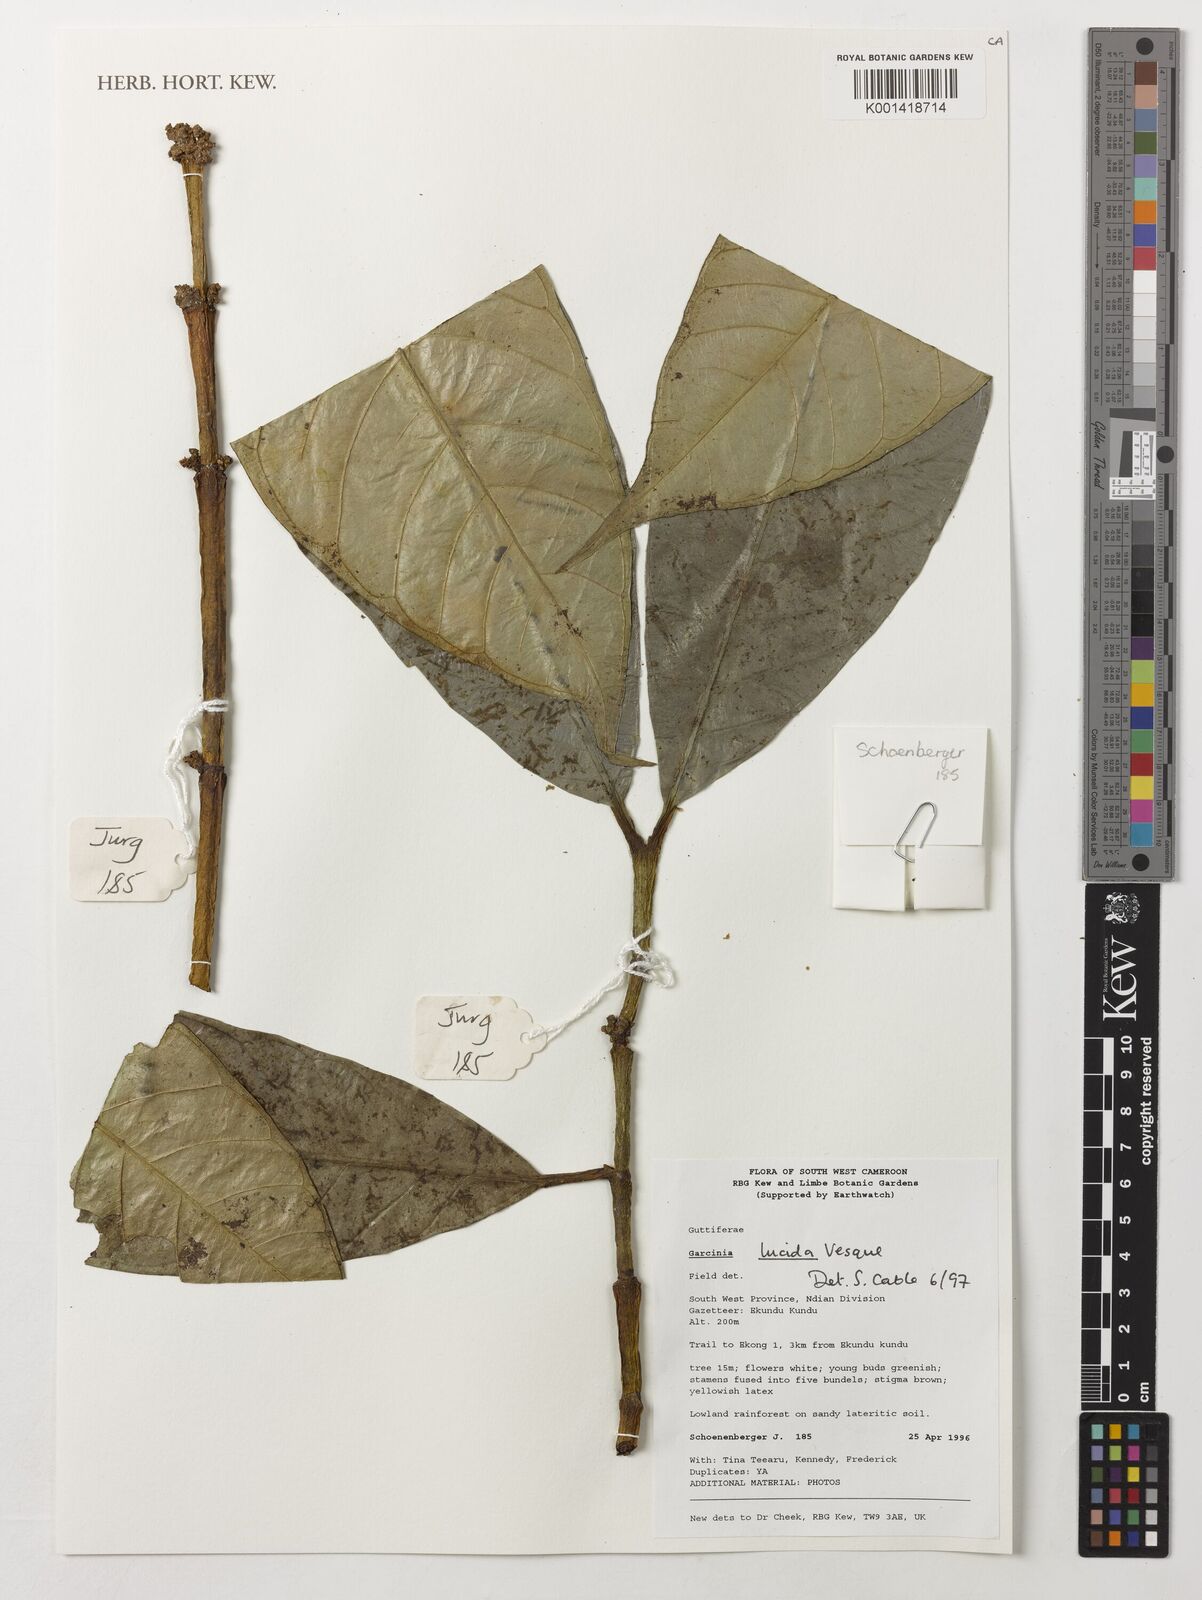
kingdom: Plantae
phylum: Tracheophyta
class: Magnoliopsida
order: Malpighiales
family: Clusiaceae
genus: Garcinia
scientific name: Garcinia lucida
